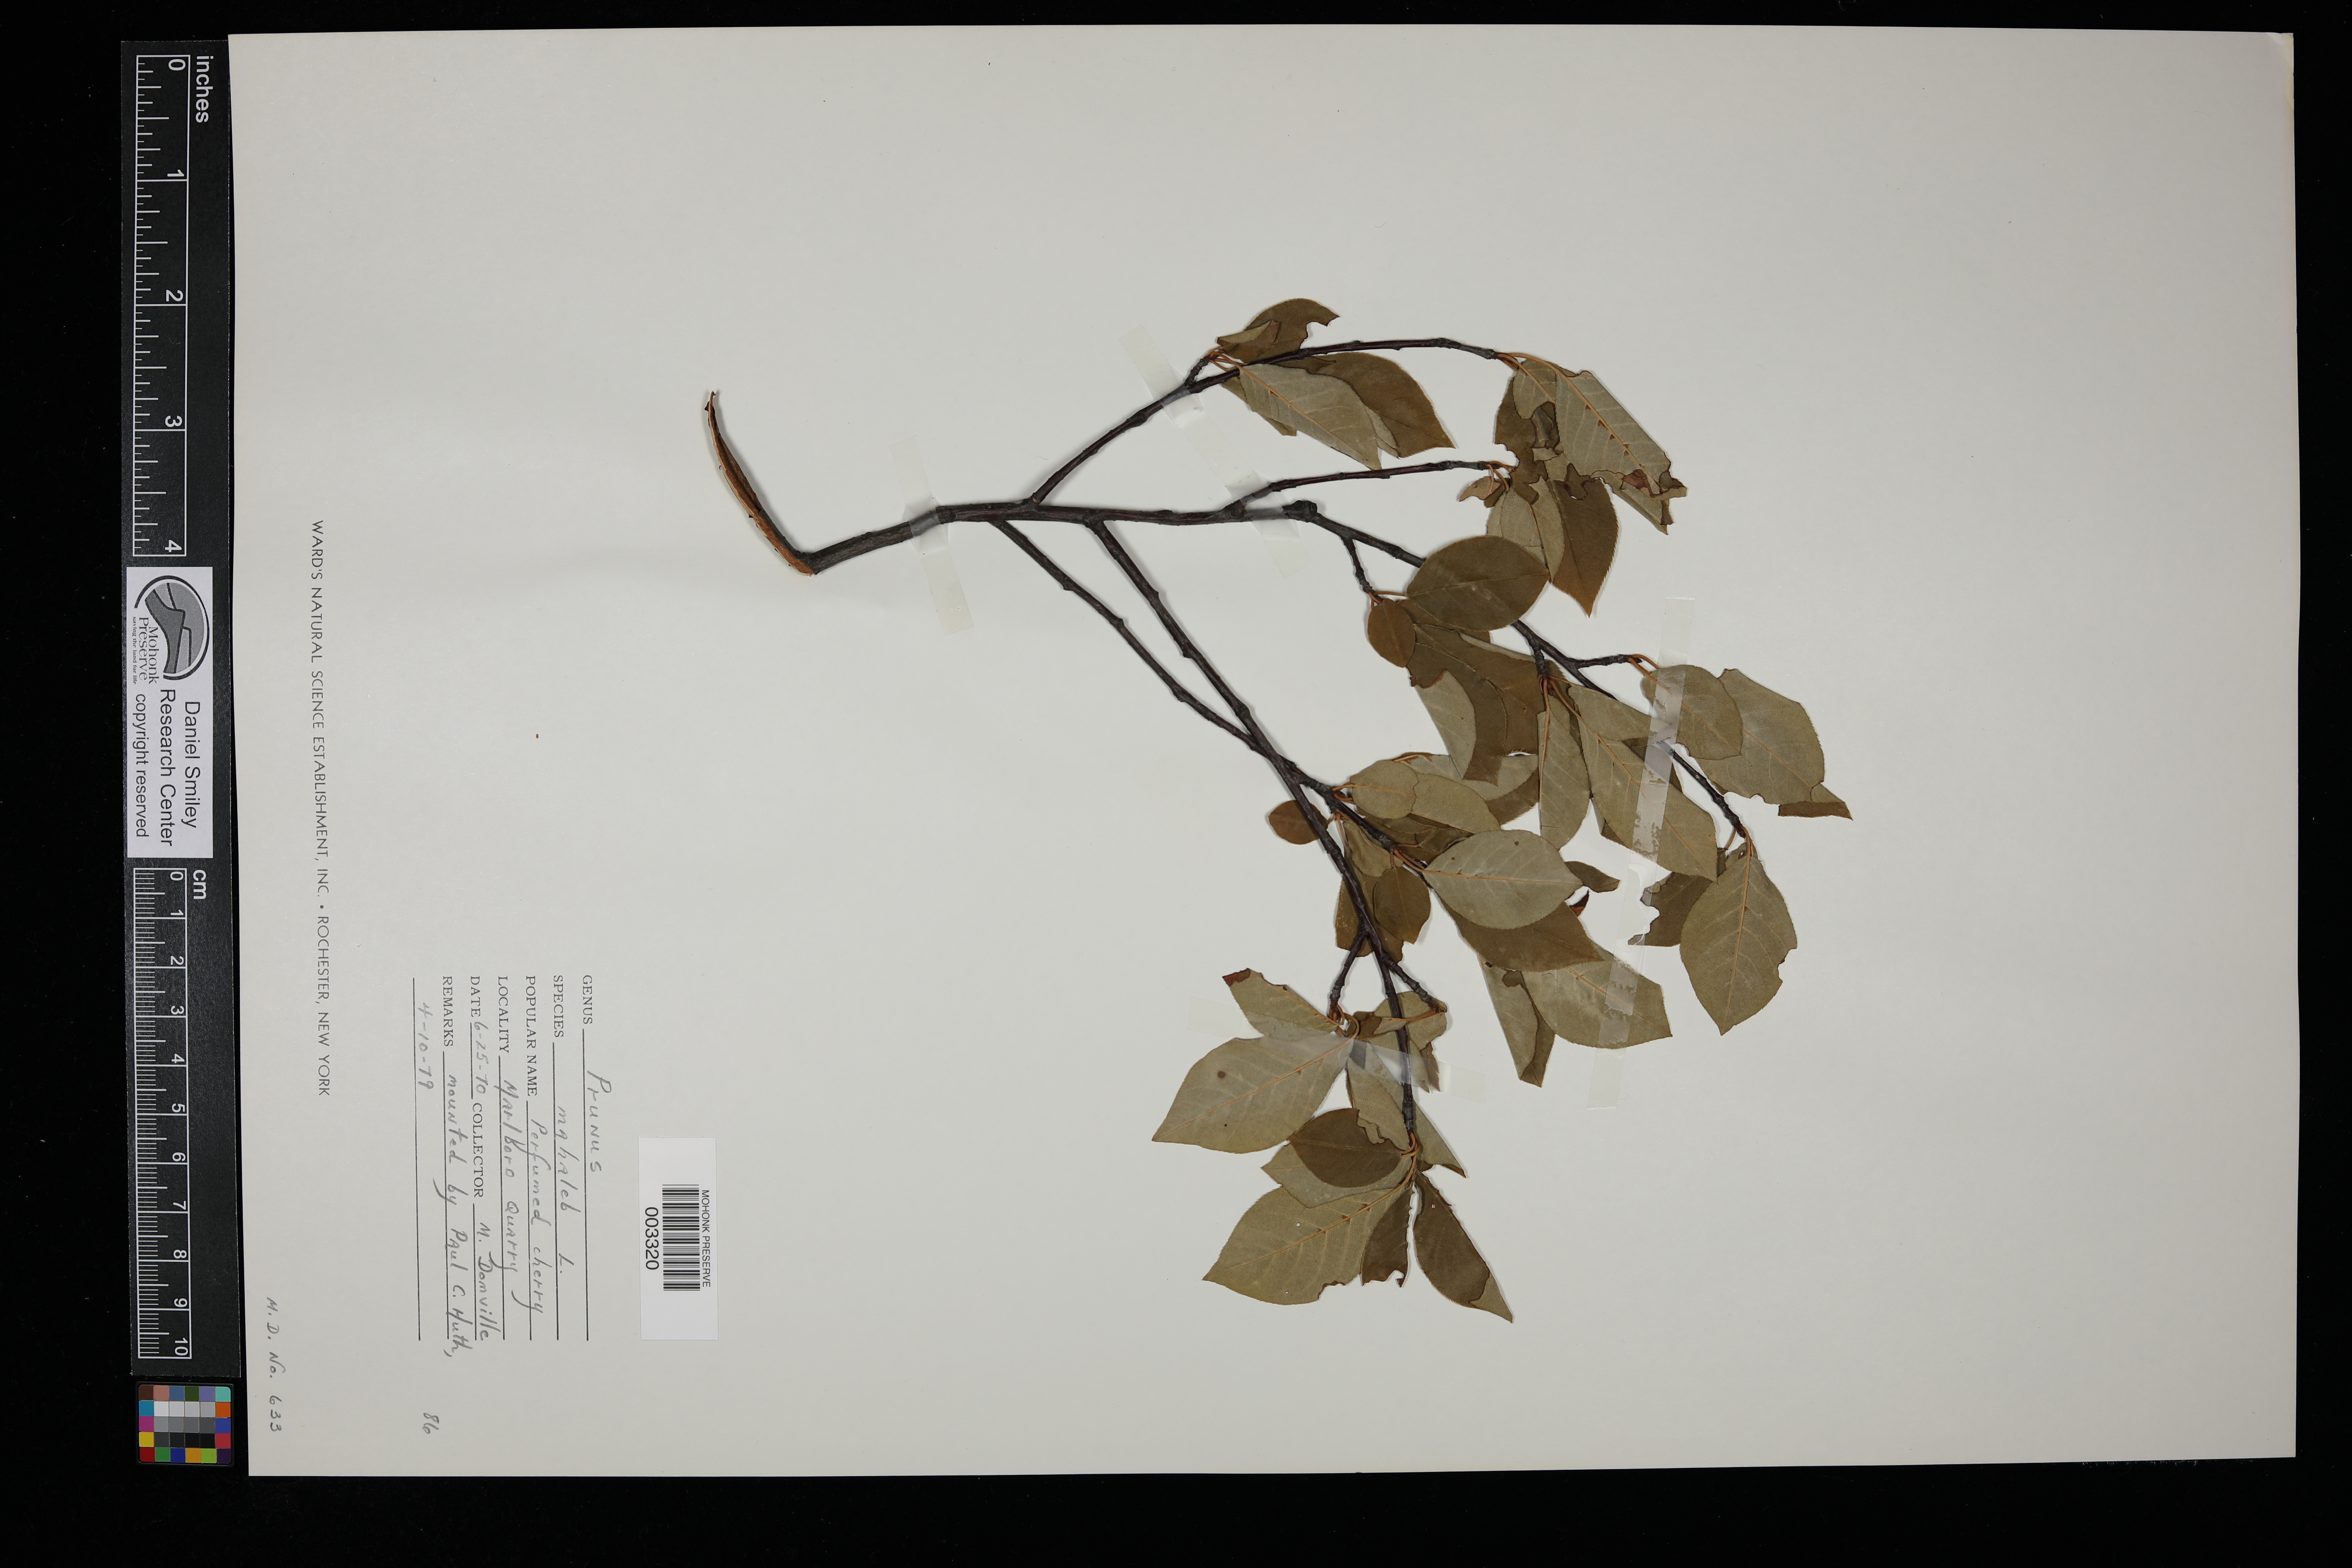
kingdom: Plantae
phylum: Tracheophyta
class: Magnoliopsida
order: Rosales
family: Rosaceae
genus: Prunus
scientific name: Prunus mahaleb
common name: Mahaleb cherry
